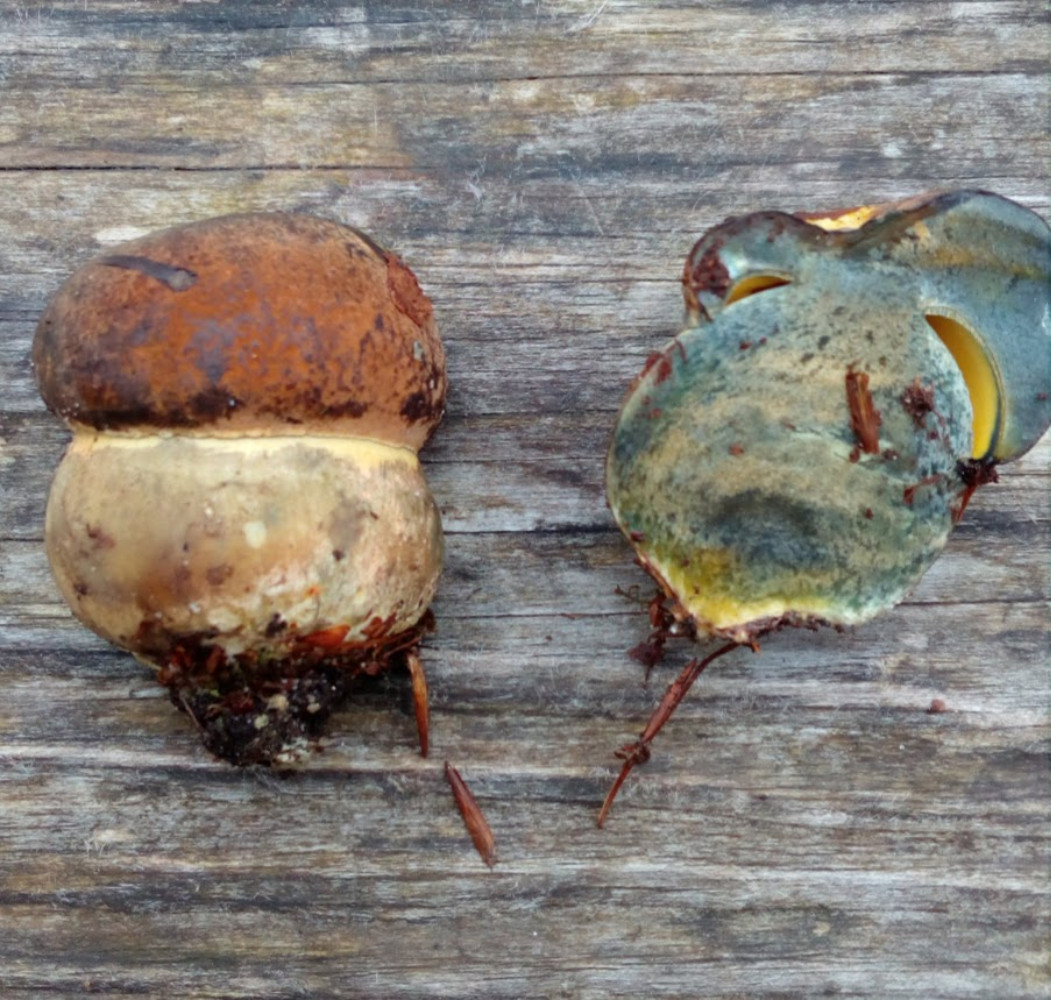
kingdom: Fungi
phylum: Basidiomycota
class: Agaricomycetes
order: Boletales
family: Boletaceae
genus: Cyanoboletus
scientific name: Cyanoboletus pulverulentus
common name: sortblånende rørhat
